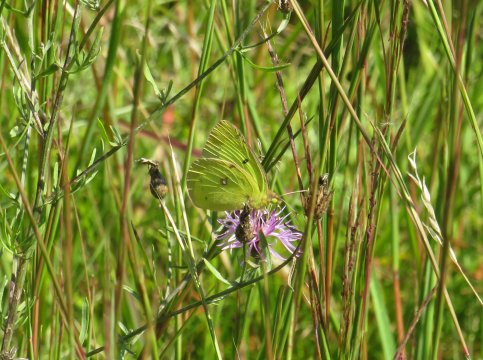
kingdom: Animalia
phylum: Arthropoda
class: Insecta
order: Lepidoptera
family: Pieridae
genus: Colias
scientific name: Colias philodice
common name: Clouded Sulphur
